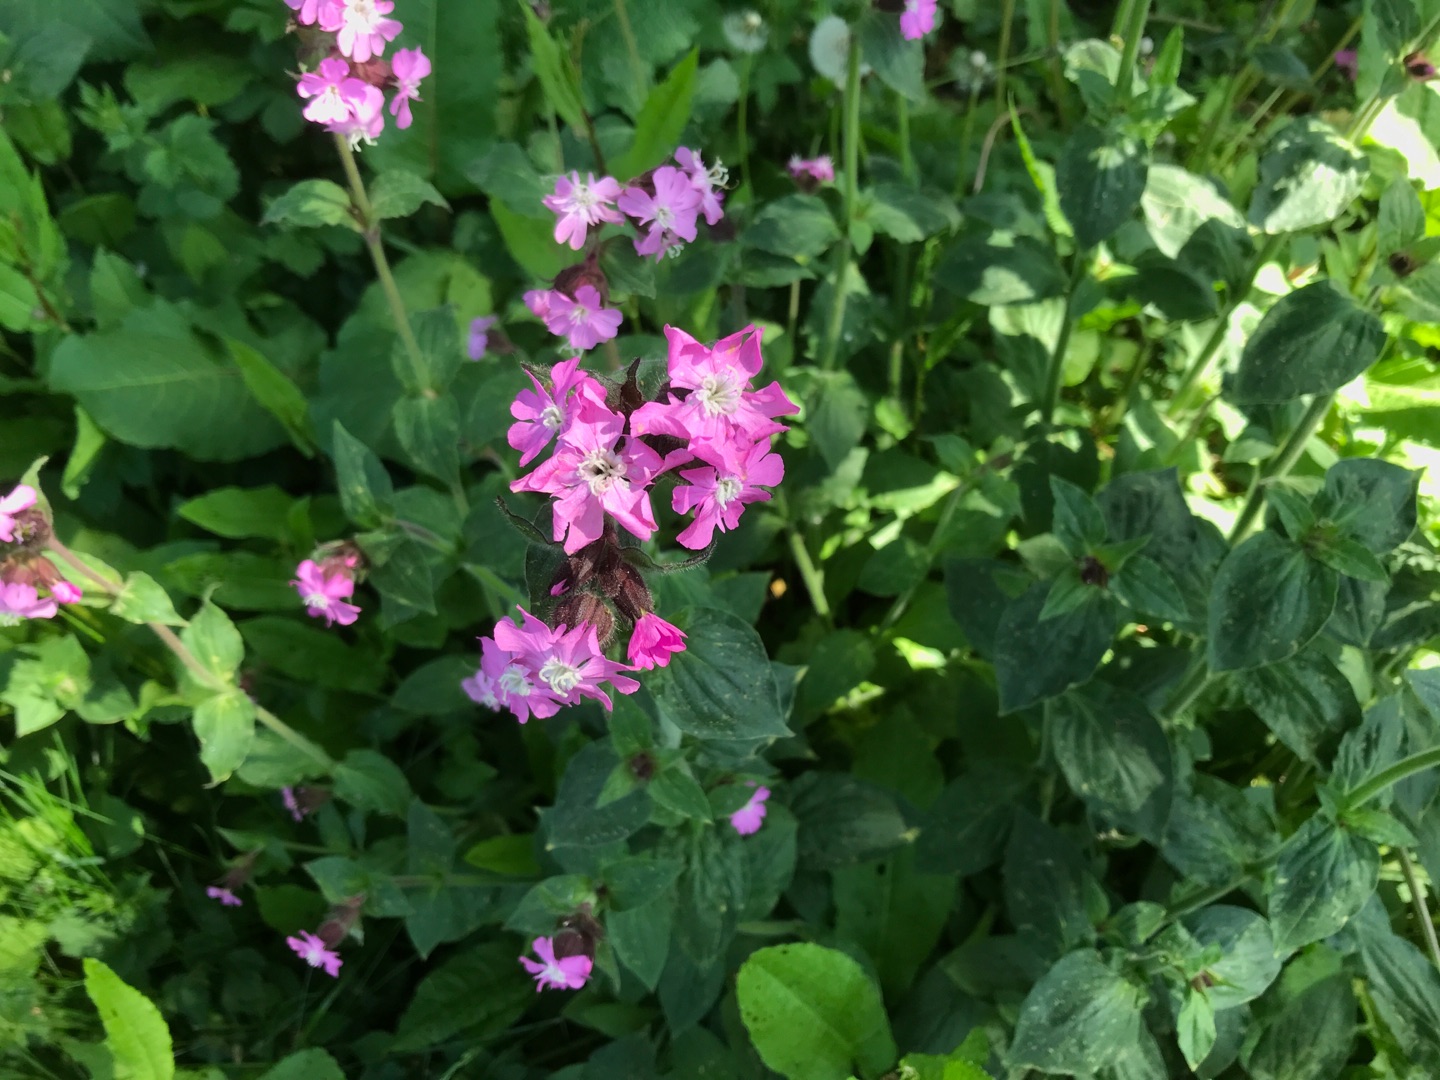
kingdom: Plantae
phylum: Tracheophyta
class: Magnoliopsida
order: Caryophyllales
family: Caryophyllaceae
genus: Silene
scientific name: Silene dioica
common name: Dagpragtstjerne
